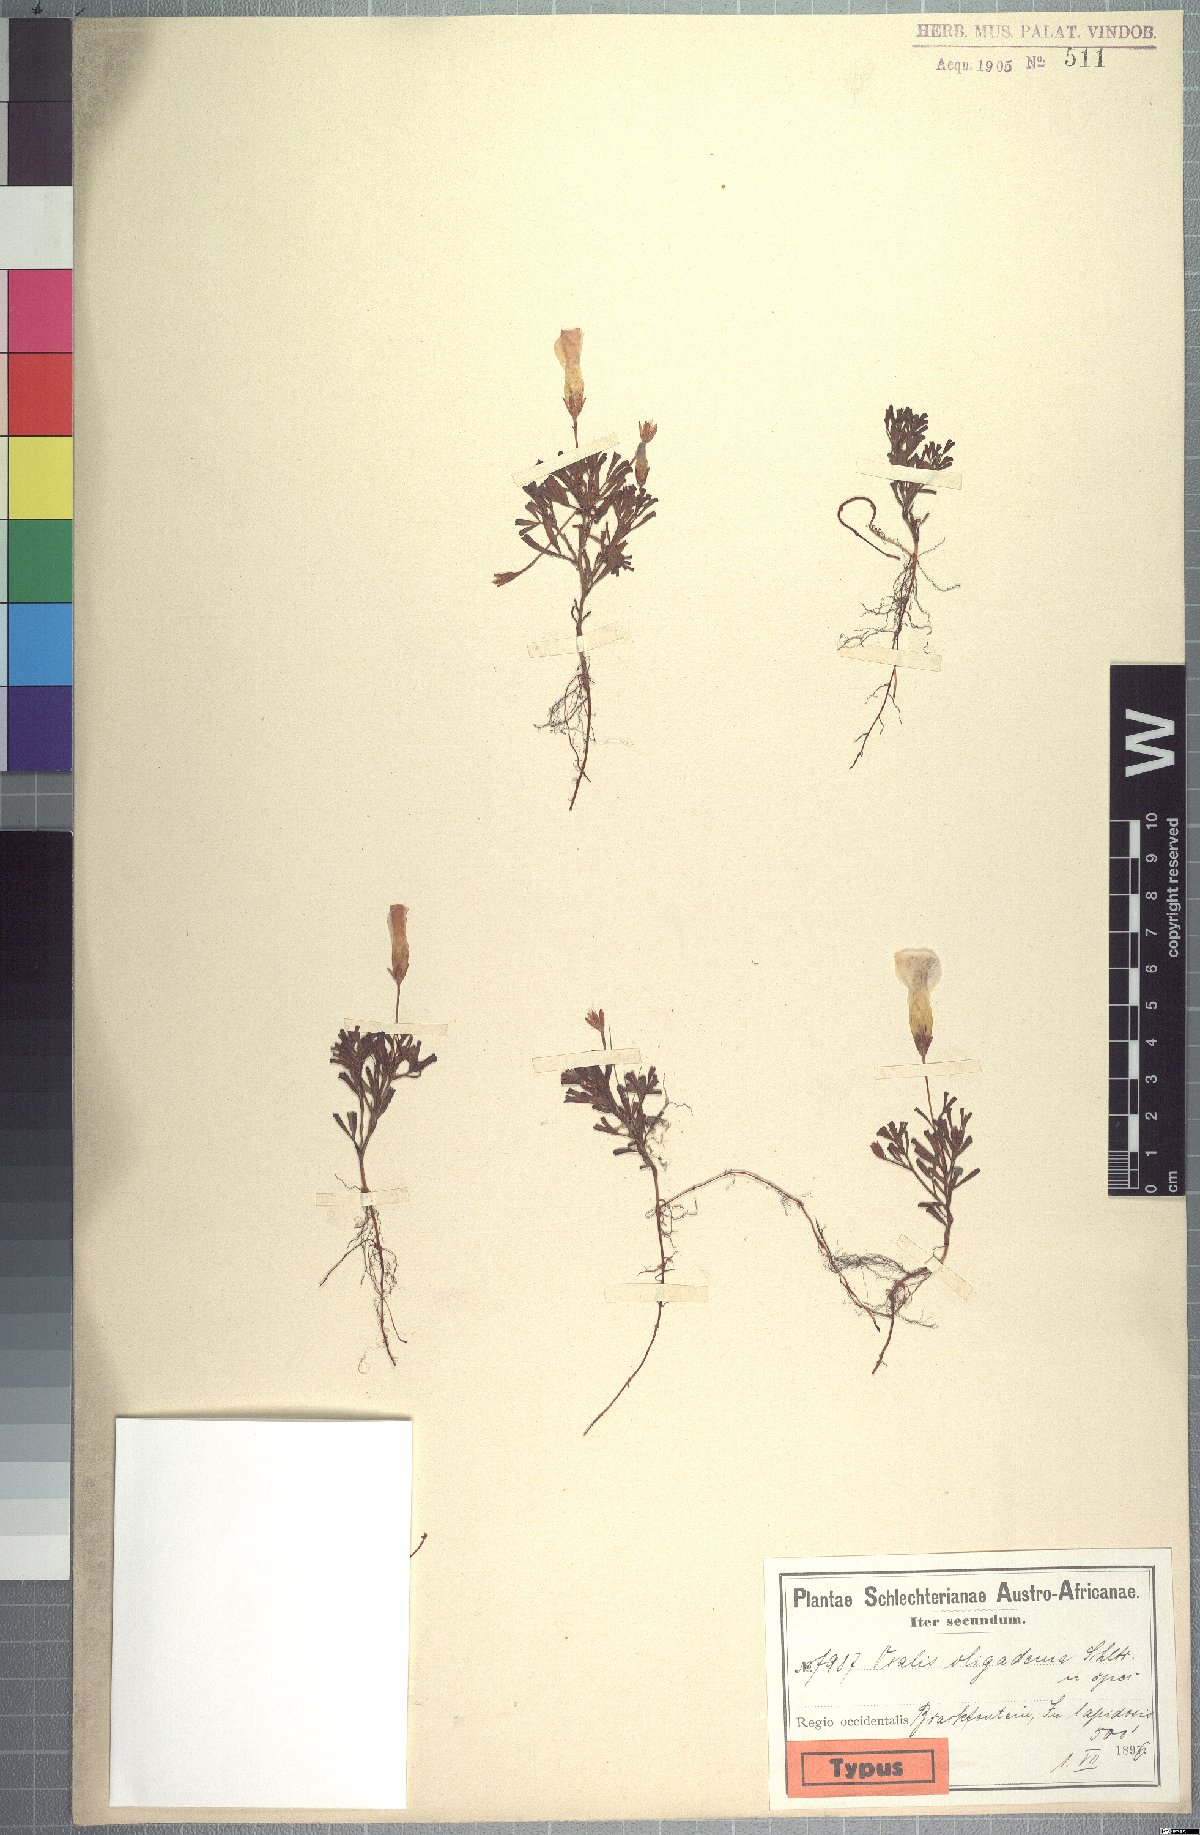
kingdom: Plantae
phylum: Tracheophyta
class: Magnoliopsida
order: Oxalidales
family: Oxalidaceae
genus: Oxalis
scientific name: Oxalis recticaulis
